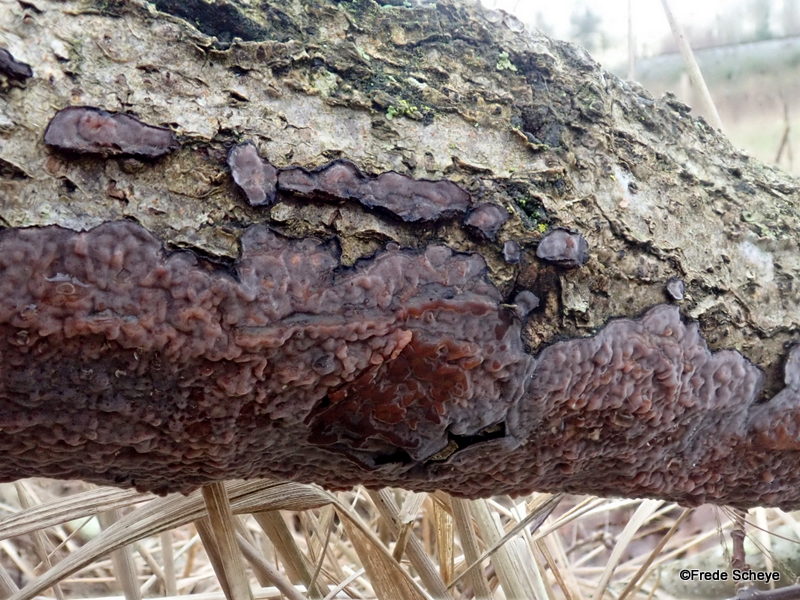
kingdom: Fungi
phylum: Basidiomycota
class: Agaricomycetes
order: Russulales
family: Peniophoraceae
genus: Peniophora
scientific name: Peniophora quercina
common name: ege-voksskind
